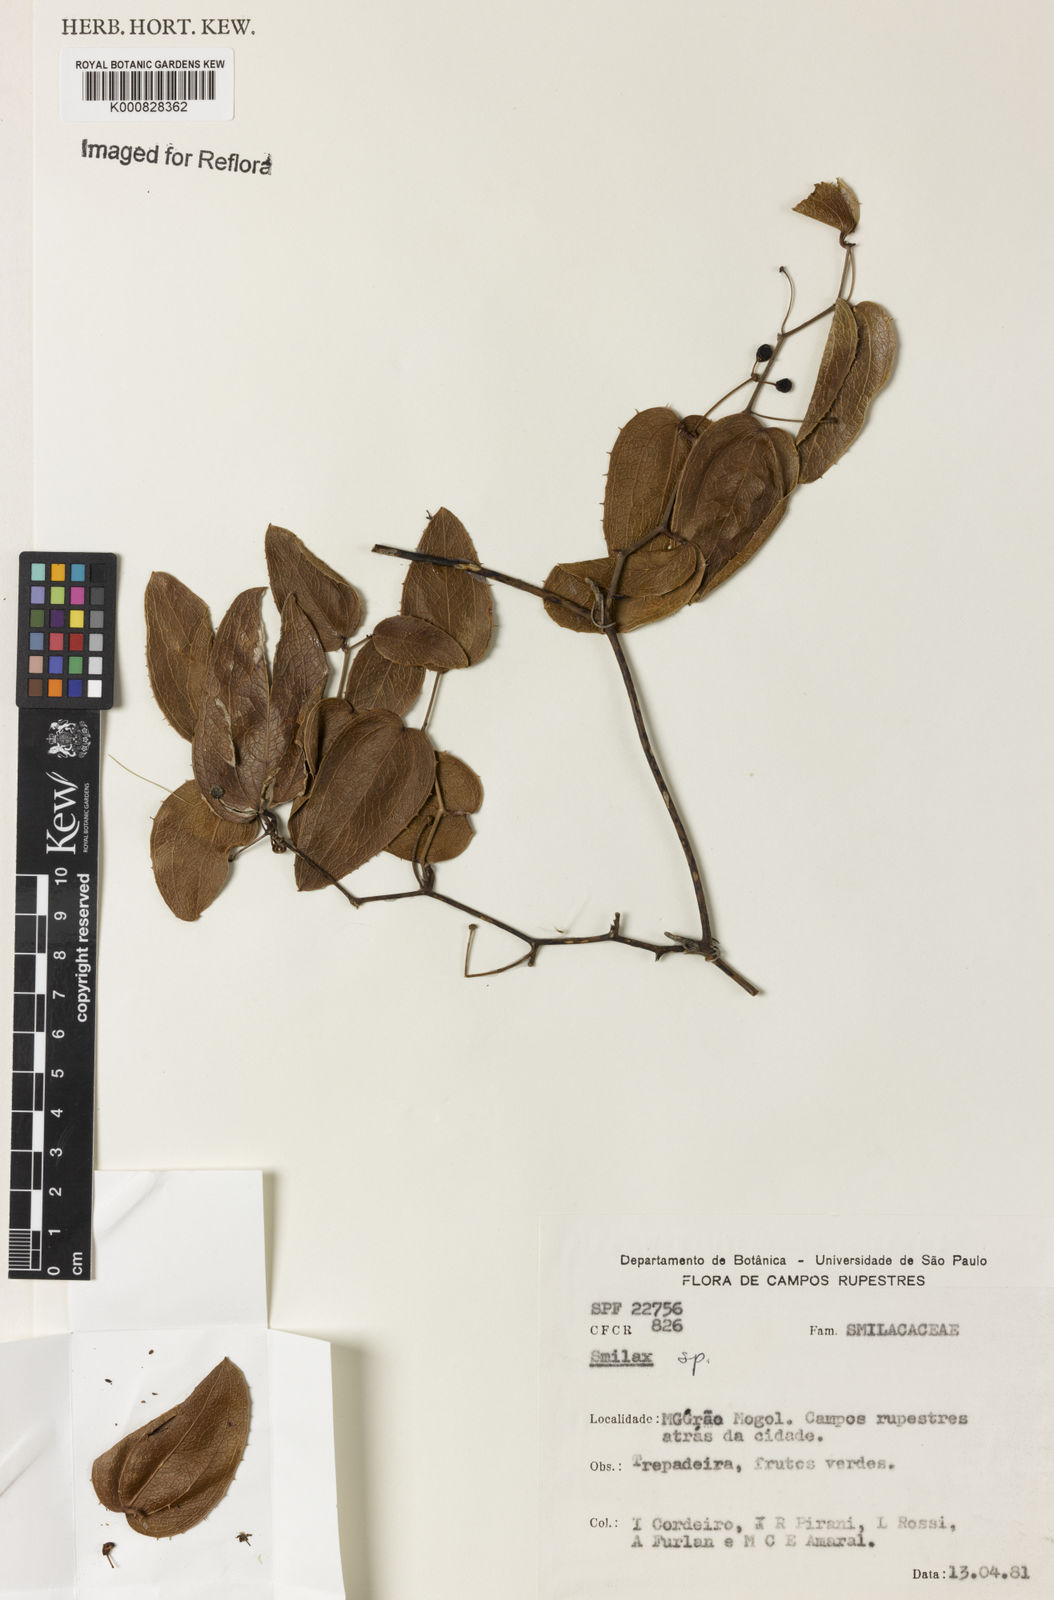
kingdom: Plantae
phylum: Tracheophyta
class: Liliopsida
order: Liliales
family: Smilacaceae
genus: Smilax
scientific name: Smilax
